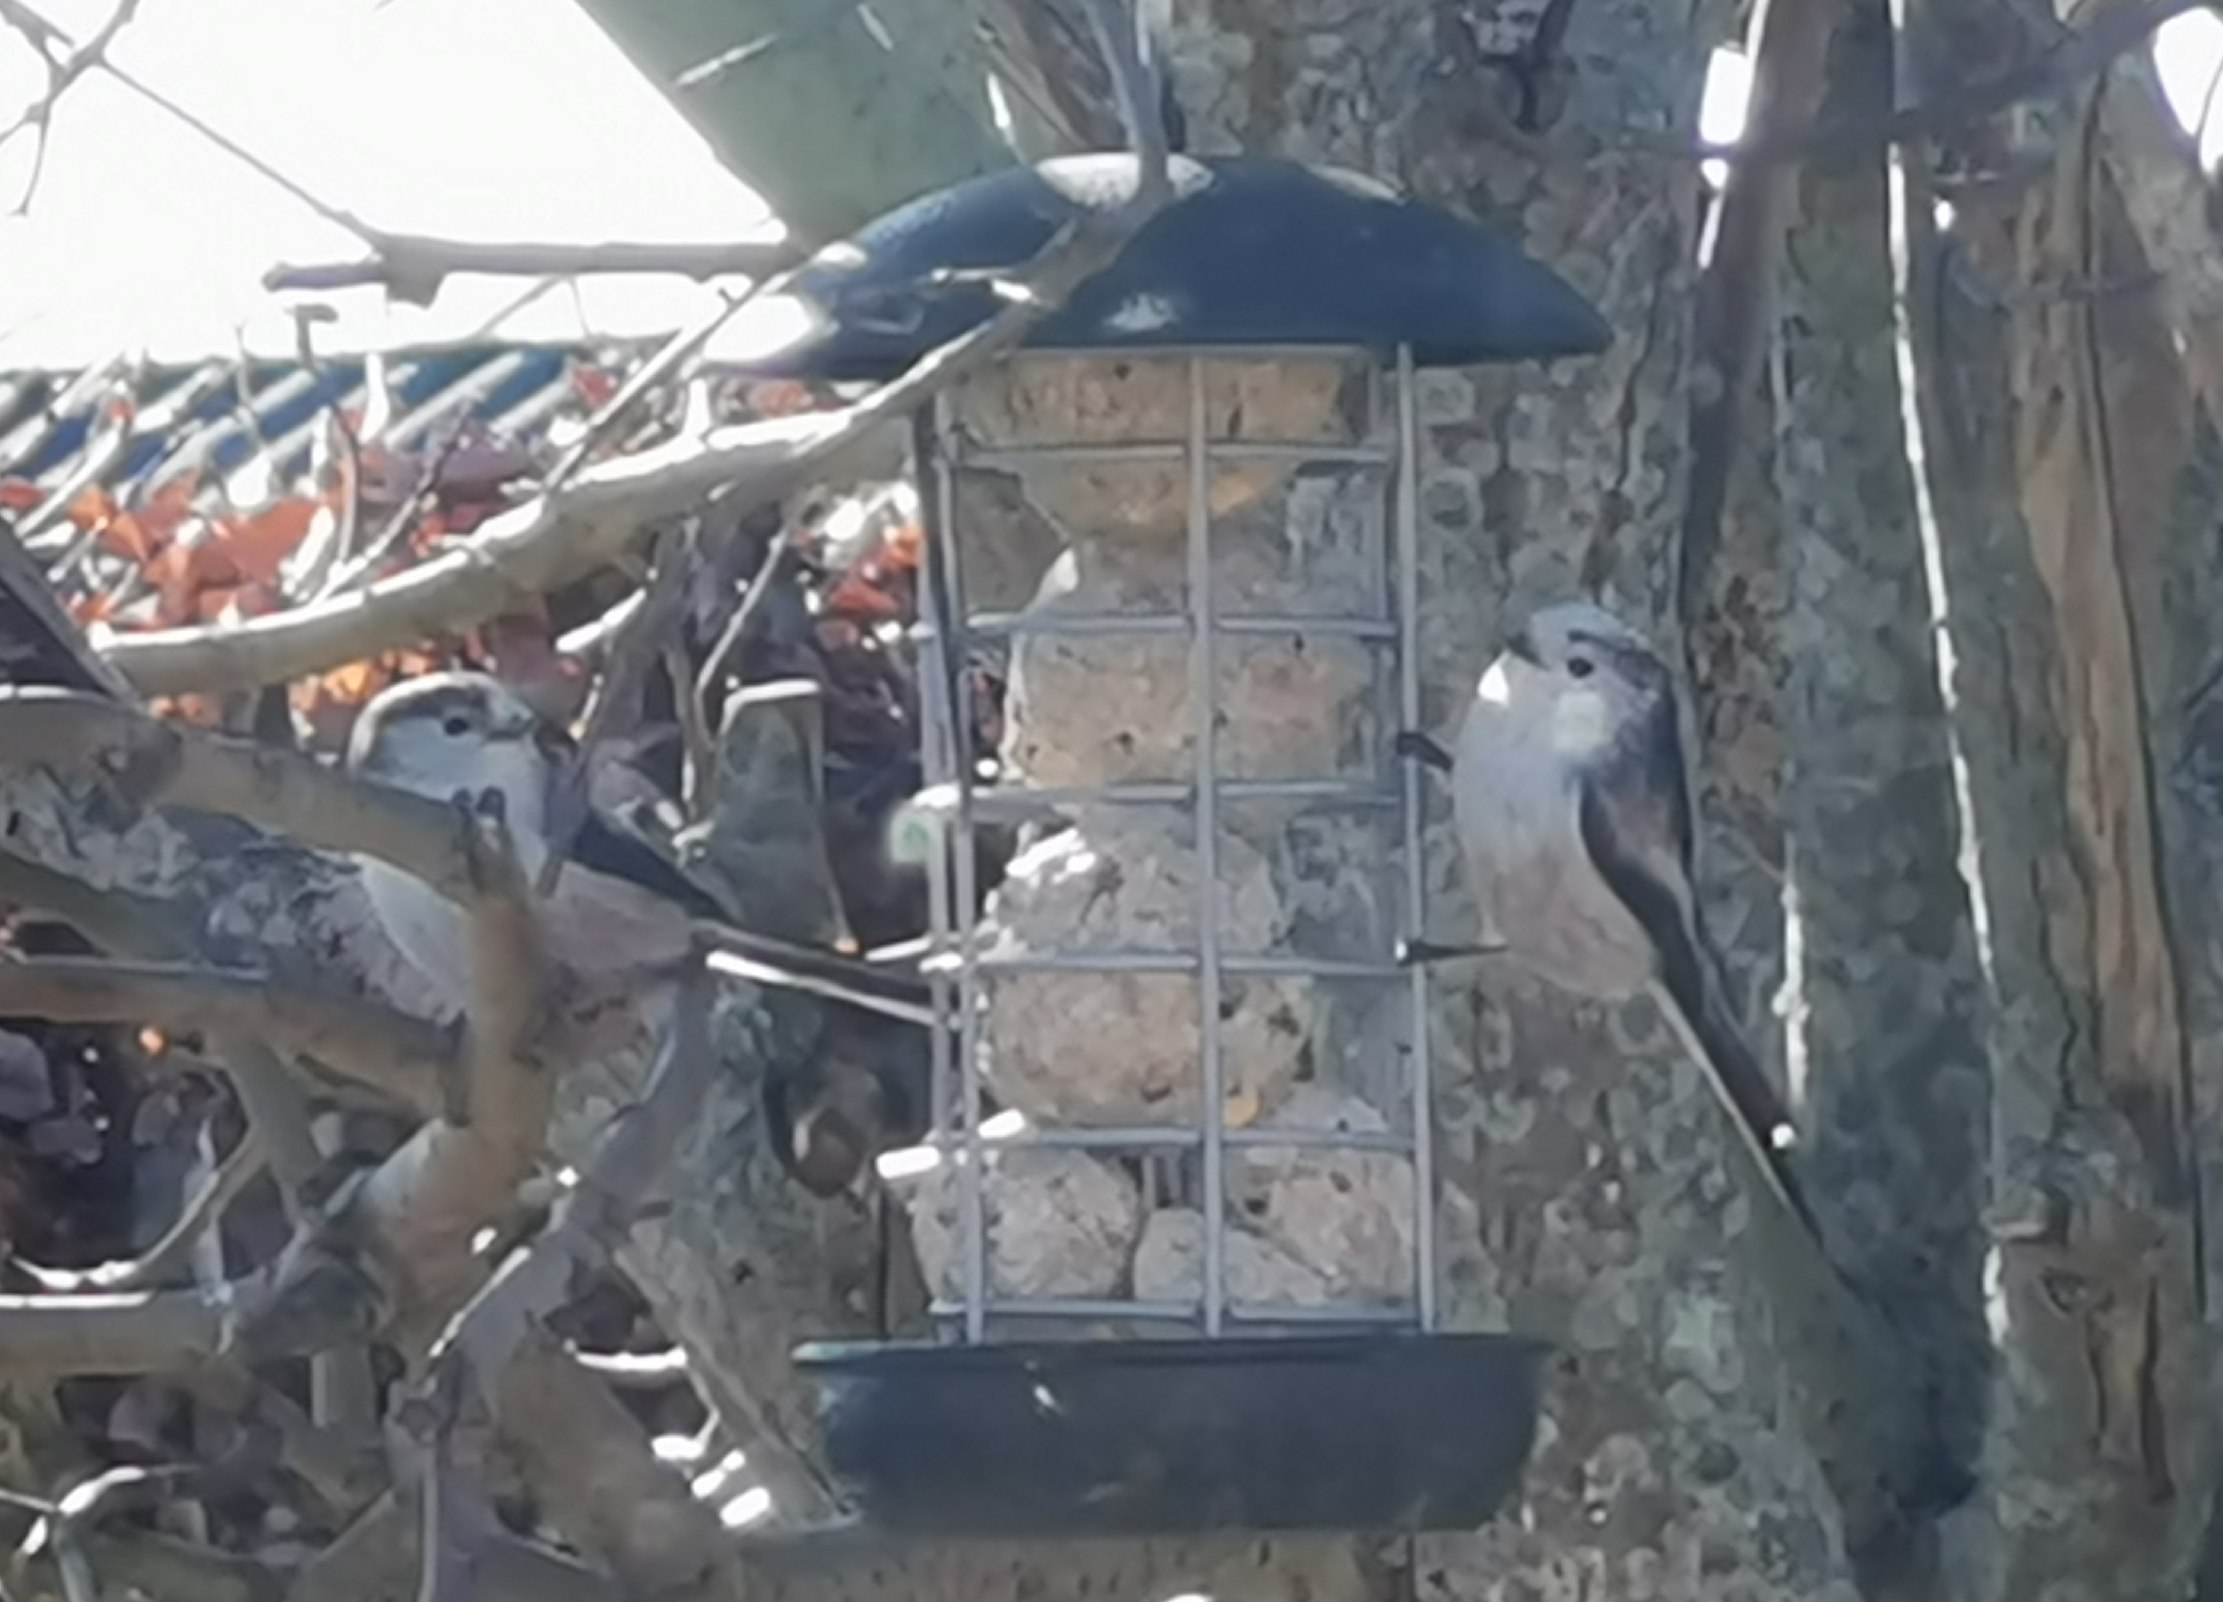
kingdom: Animalia
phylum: Chordata
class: Aves
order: Passeriformes
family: Aegithalidae
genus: Aegithalos
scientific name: Aegithalos caudatus
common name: Halemejse
